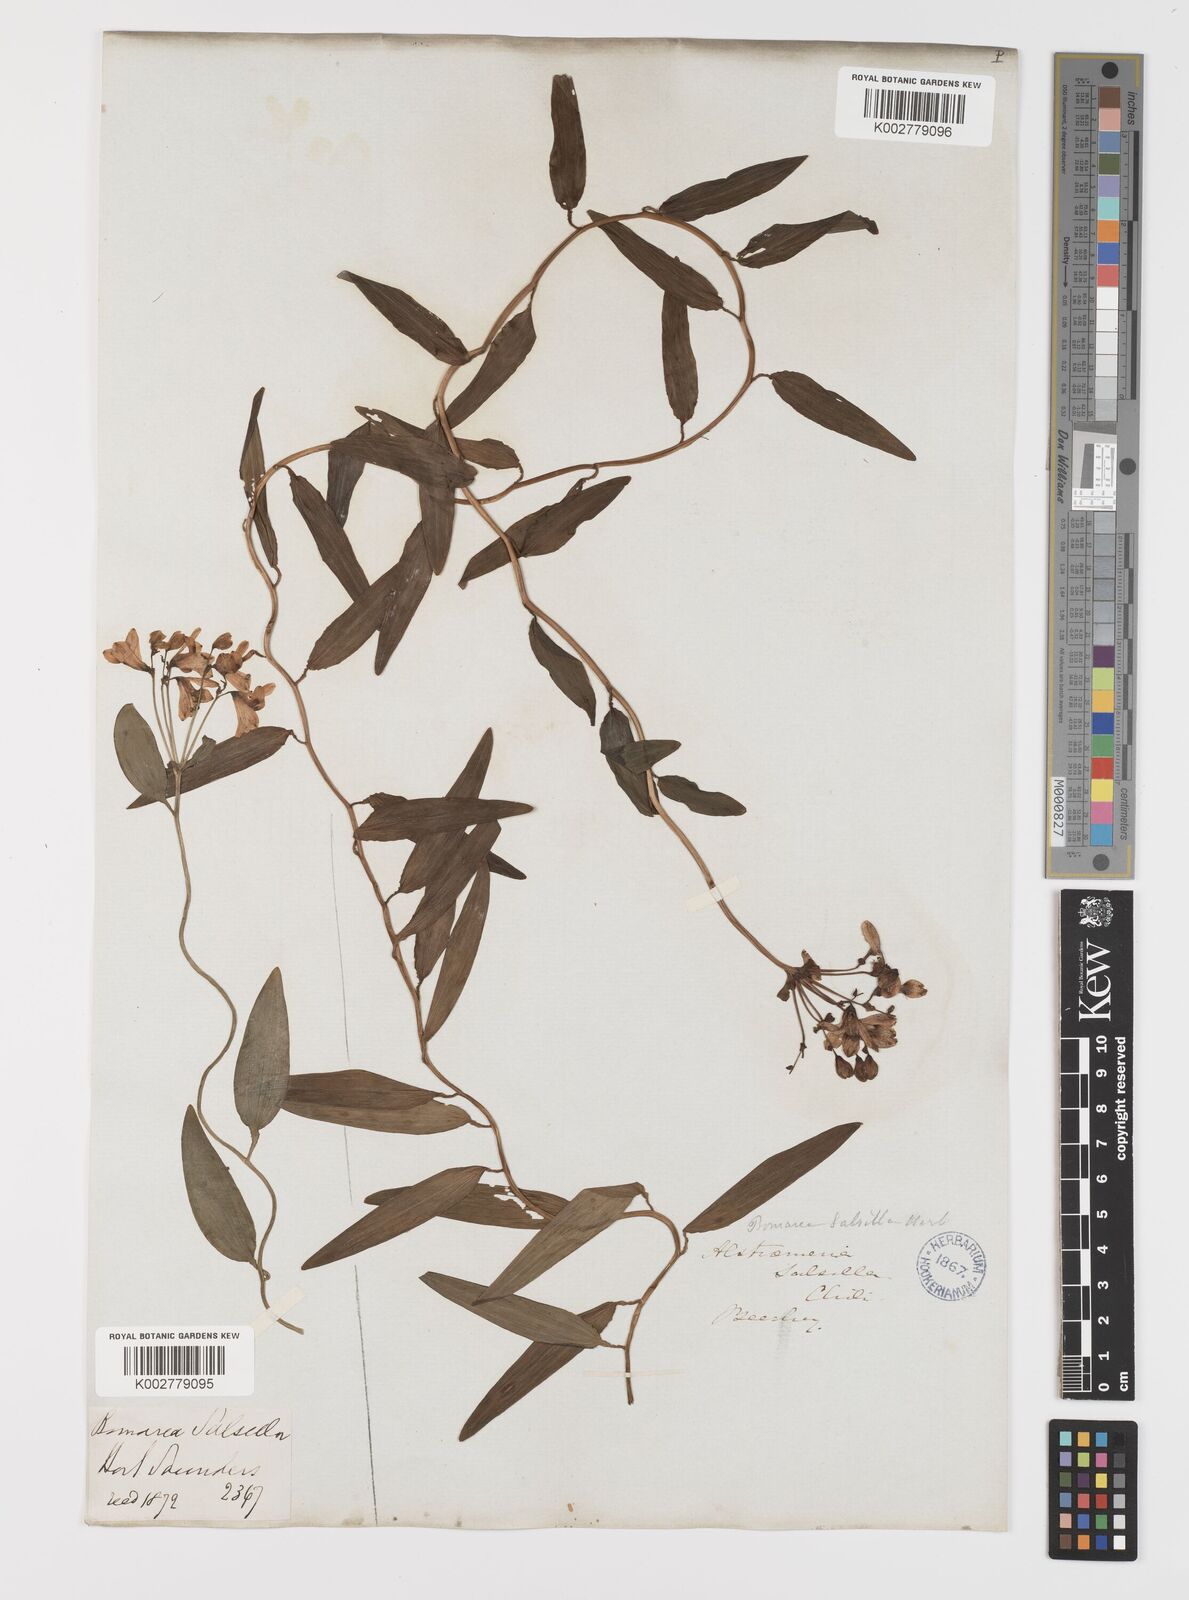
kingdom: Plantae
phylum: Tracheophyta
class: Liliopsida
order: Liliales
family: Alstroemeriaceae
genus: Bomarea
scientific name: Bomarea edulis
